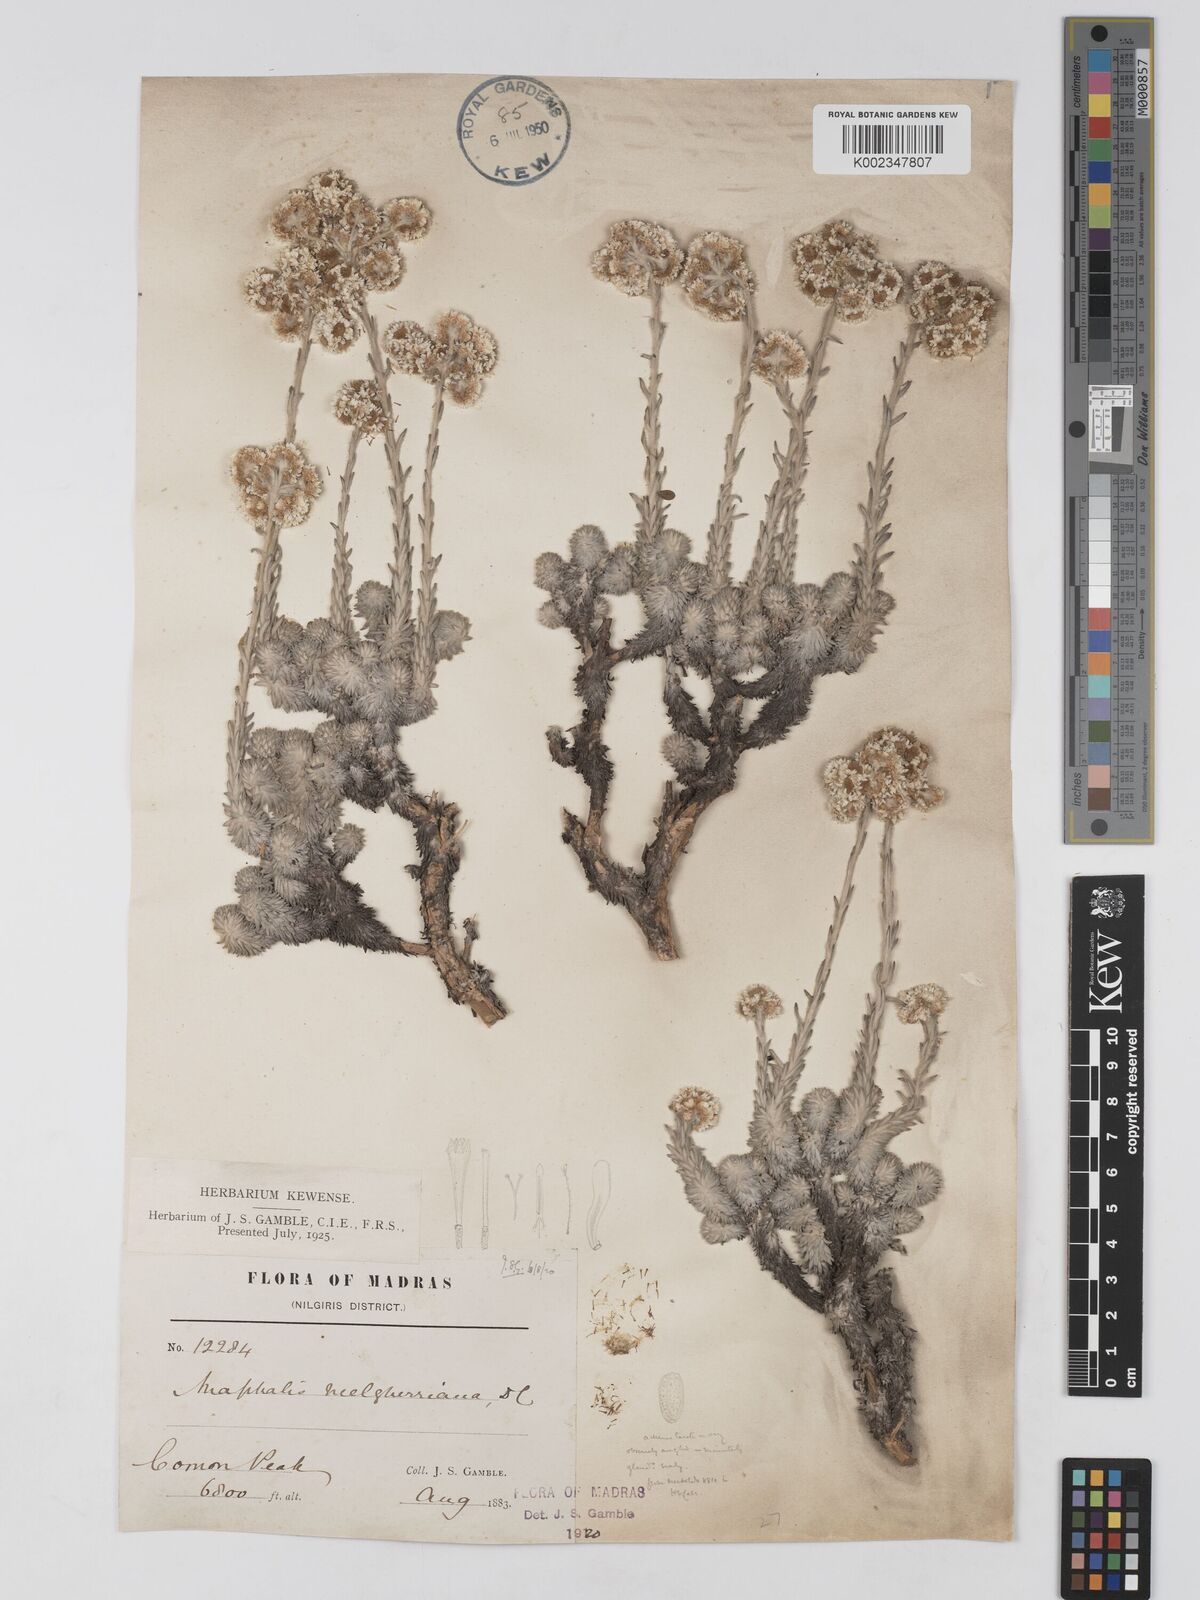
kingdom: Plantae
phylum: Tracheophyta
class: Magnoliopsida
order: Asterales
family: Asteraceae
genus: Anaphalis
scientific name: Anaphalis neelgerryana
